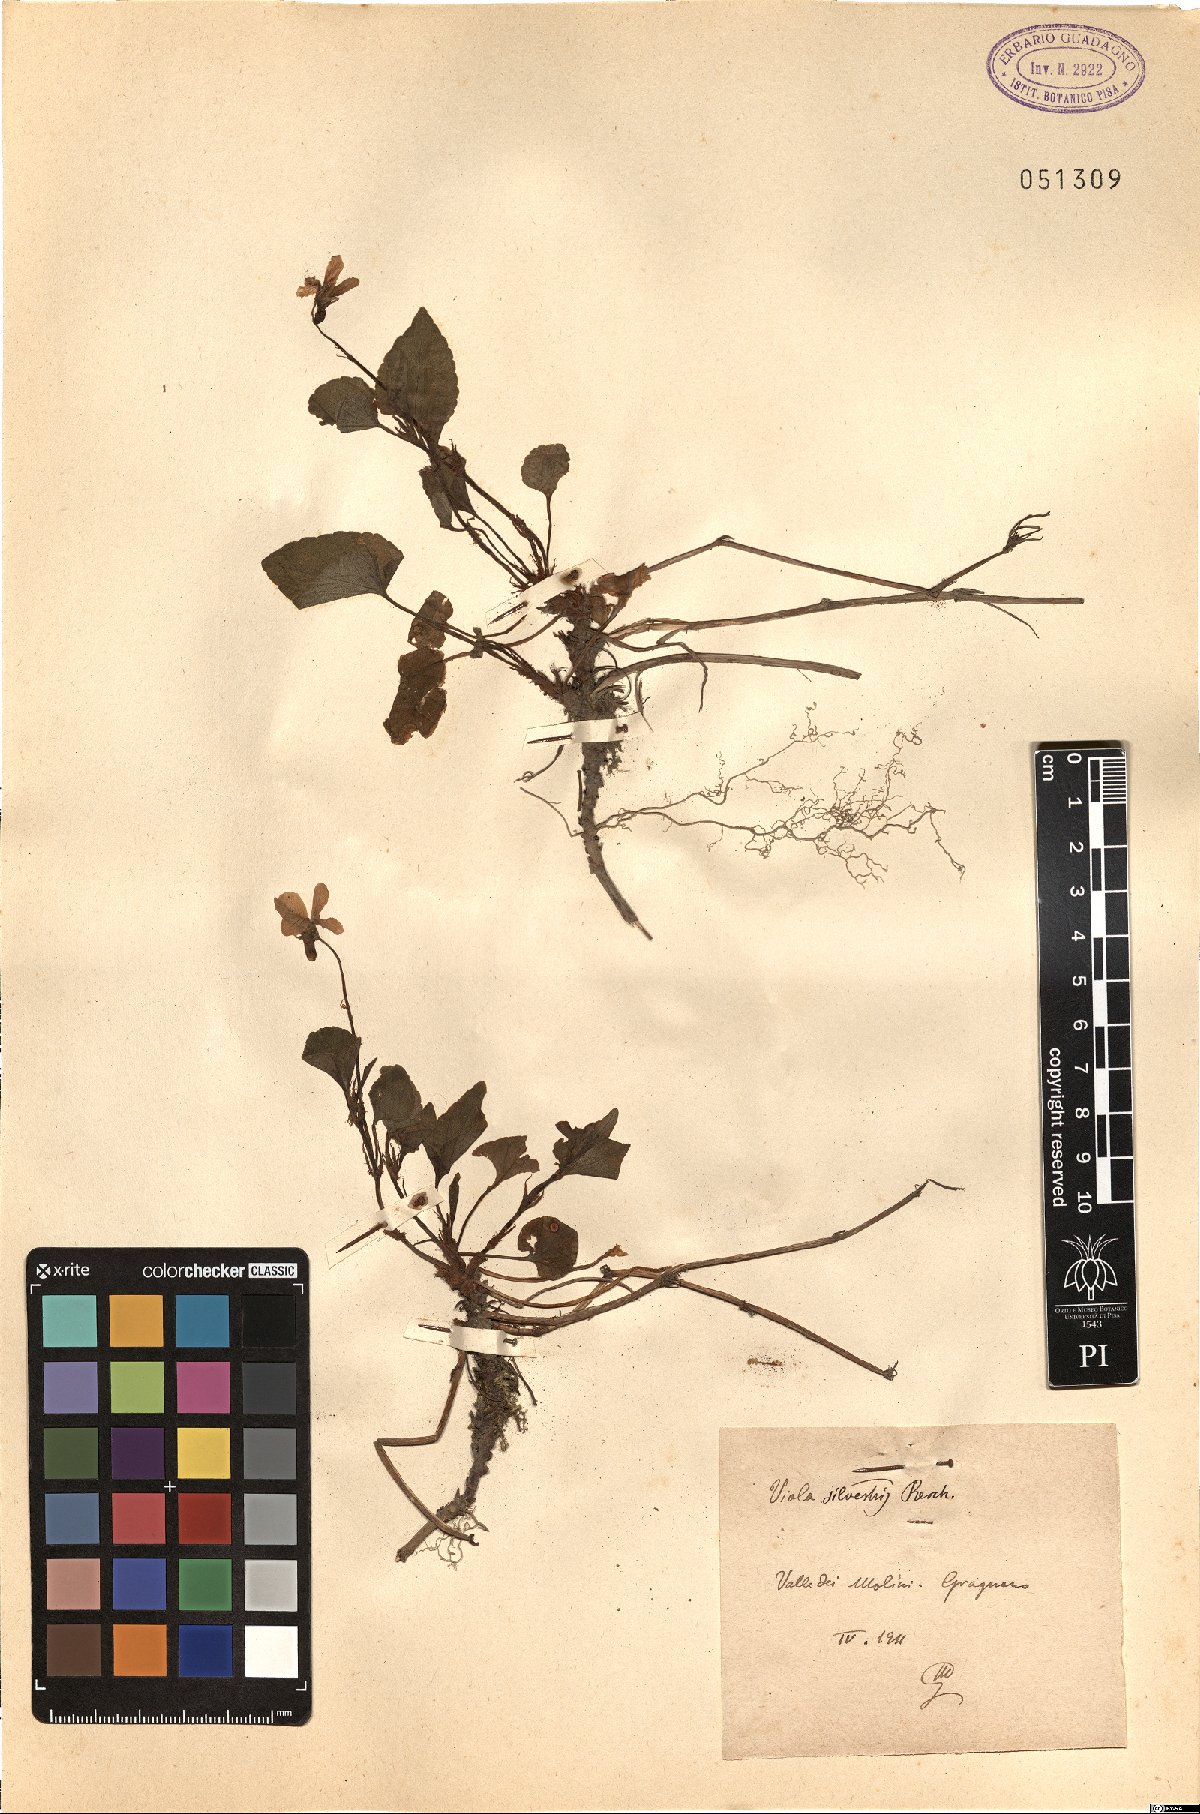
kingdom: Plantae
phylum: Tracheophyta
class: Magnoliopsida
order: Malpighiales
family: Violaceae
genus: Viola
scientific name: Viola canina
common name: Heath dog-violet
